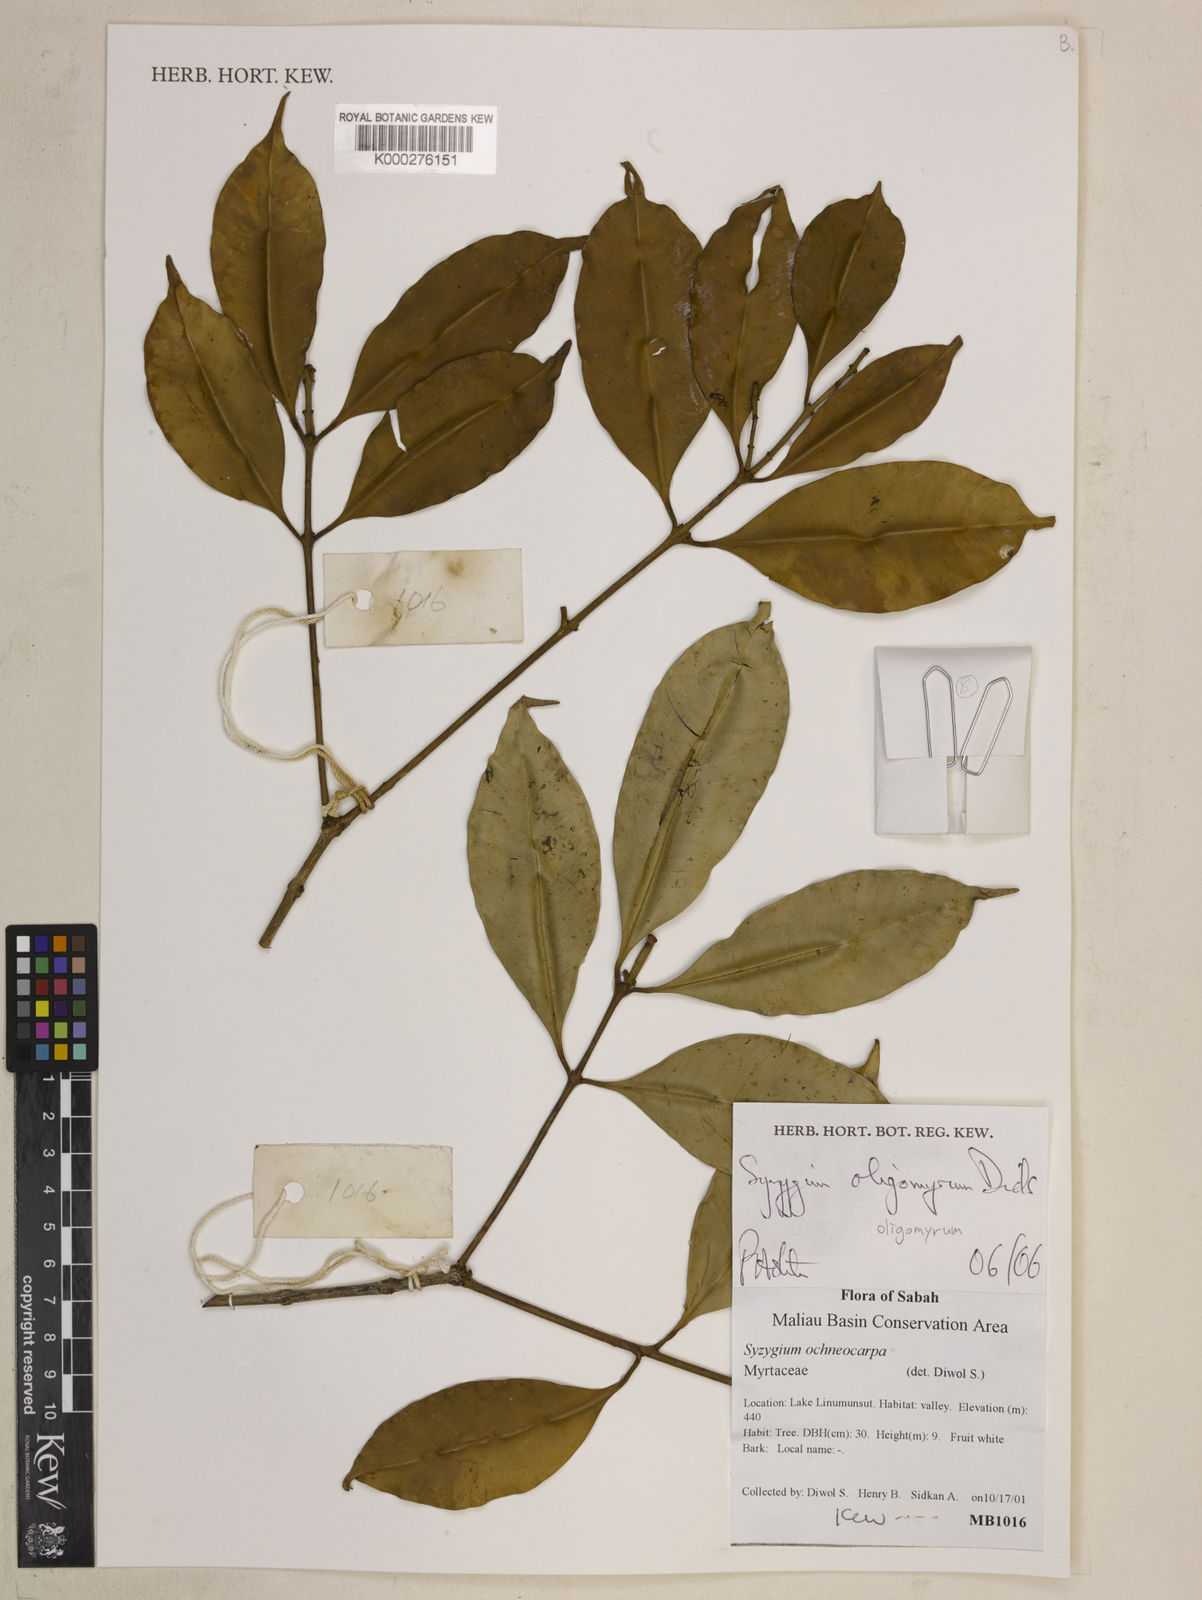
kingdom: Plantae
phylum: Tracheophyta
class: Magnoliopsida
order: Myrtales
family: Myrtaceae
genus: Syzygium
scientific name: Syzygium oligomyrum
